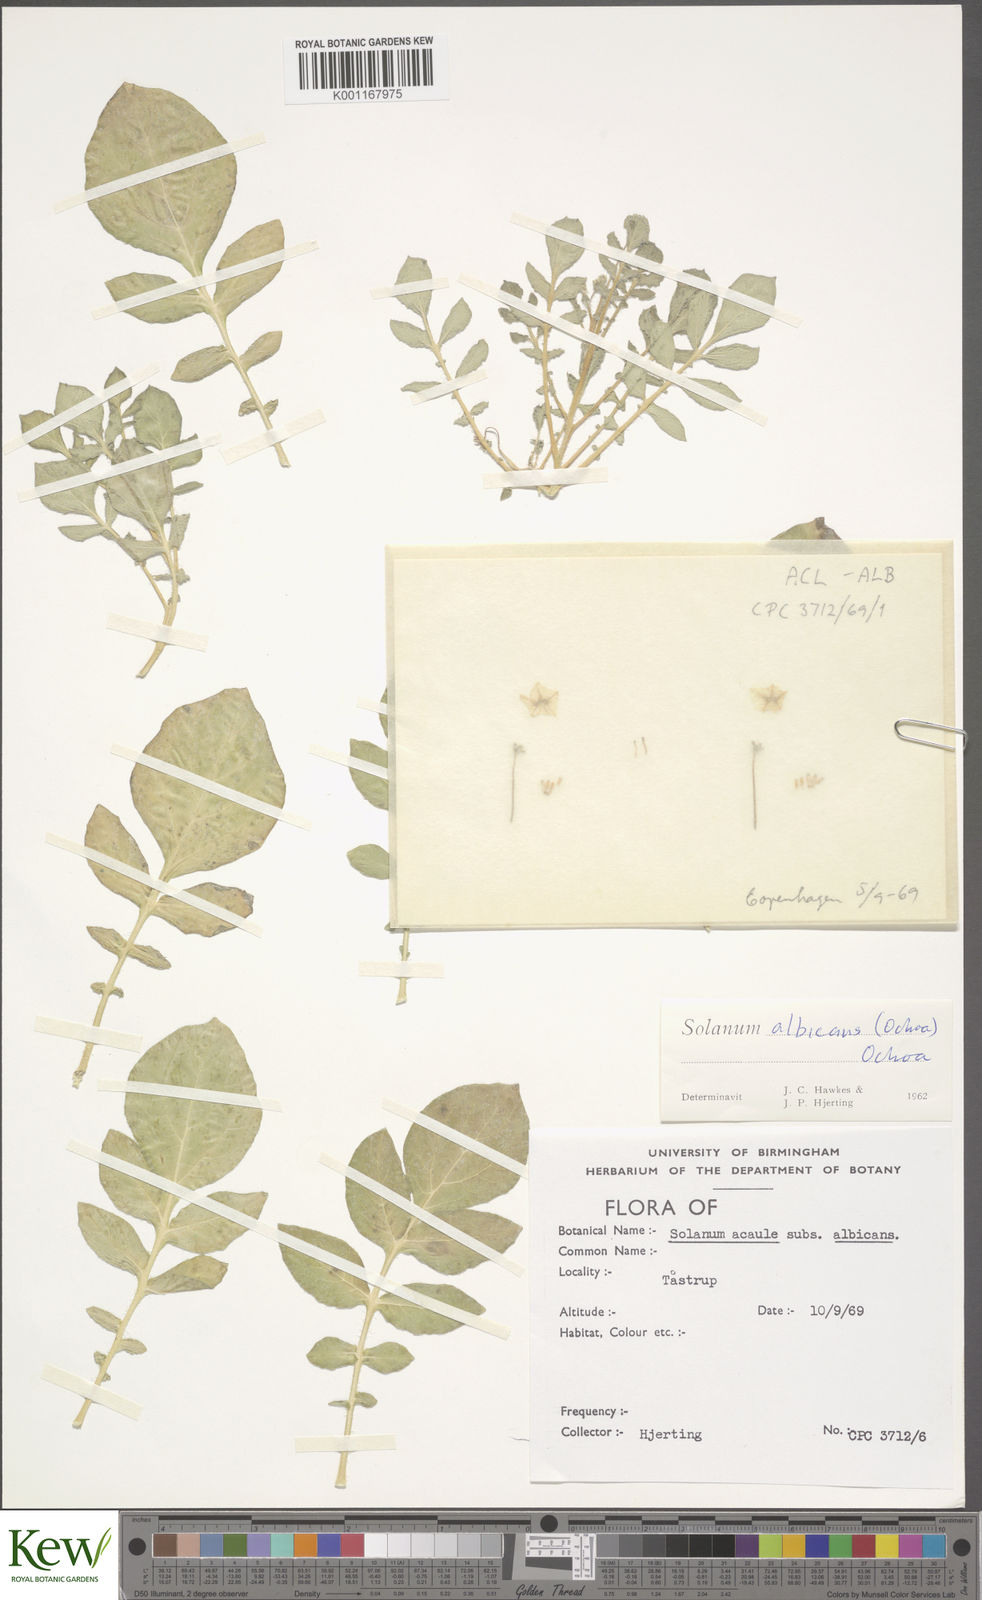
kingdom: Plantae
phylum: Tracheophyta
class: Magnoliopsida
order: Solanales
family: Solanaceae
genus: Solanum
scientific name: Solanum albicans
